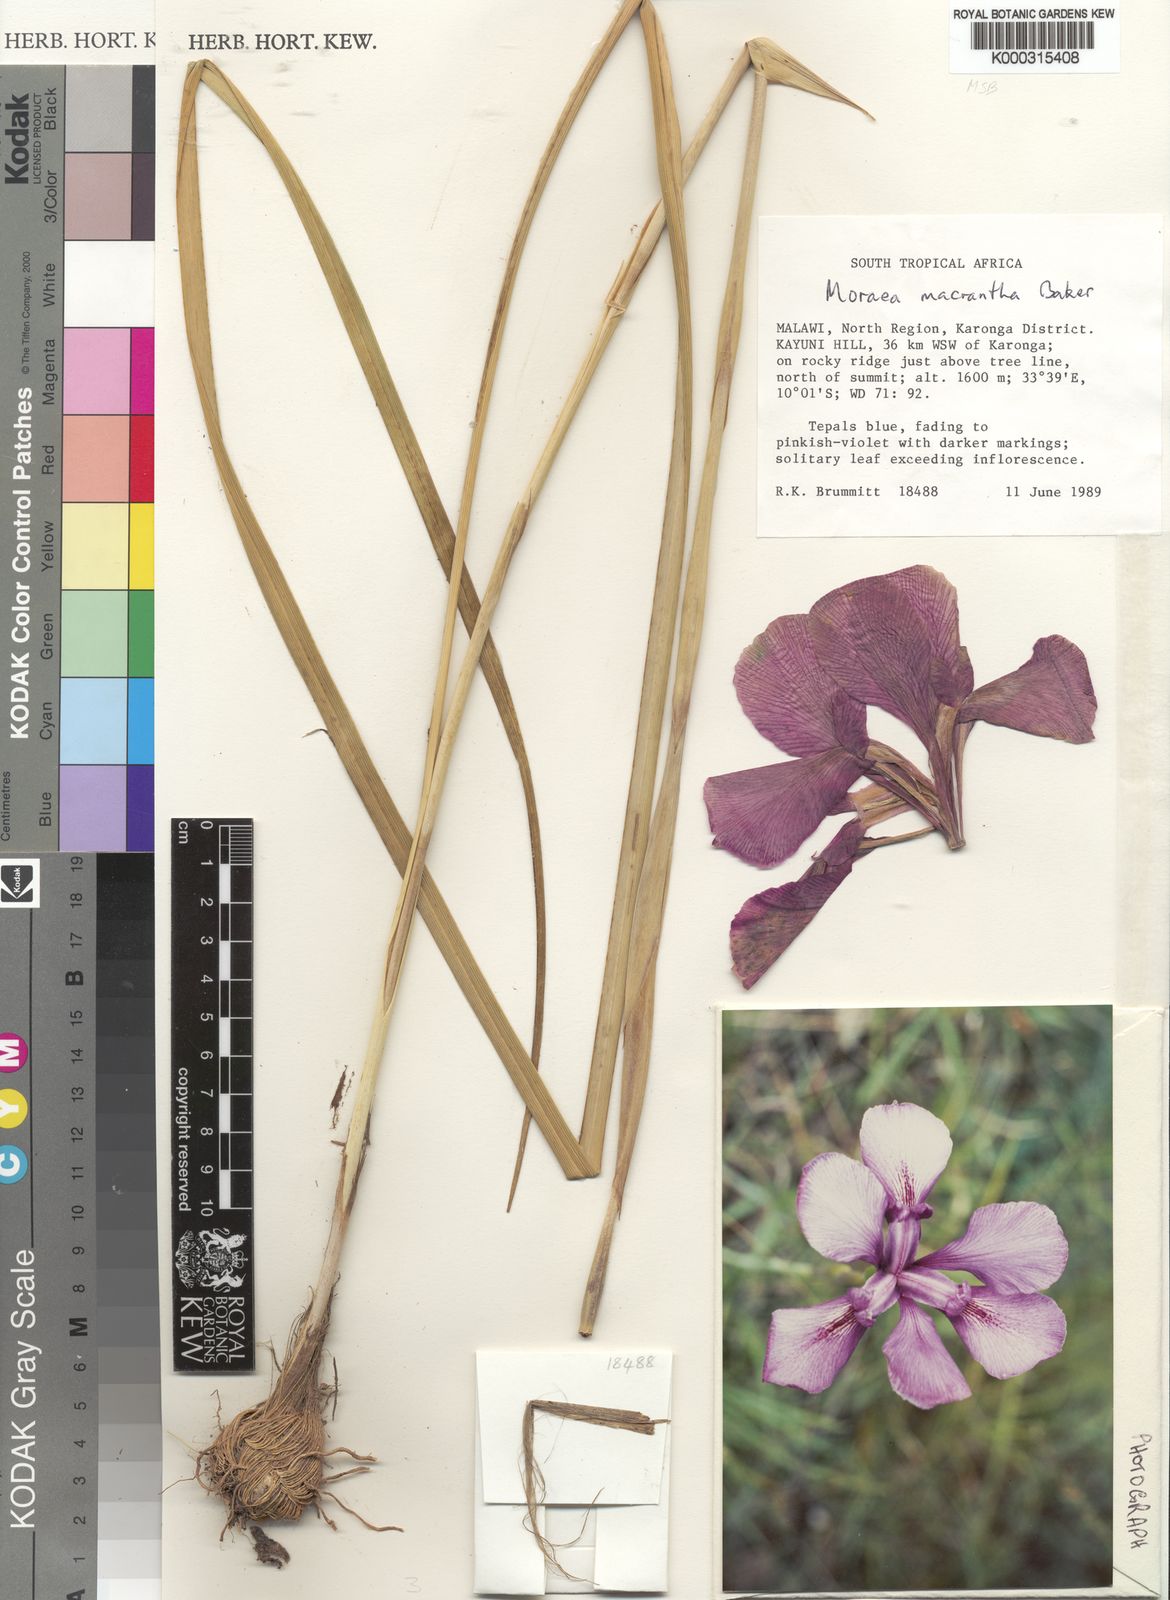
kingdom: Plantae
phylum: Tracheophyta
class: Liliopsida
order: Asparagales
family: Iridaceae
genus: Moraea
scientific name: Moraea macrantha
